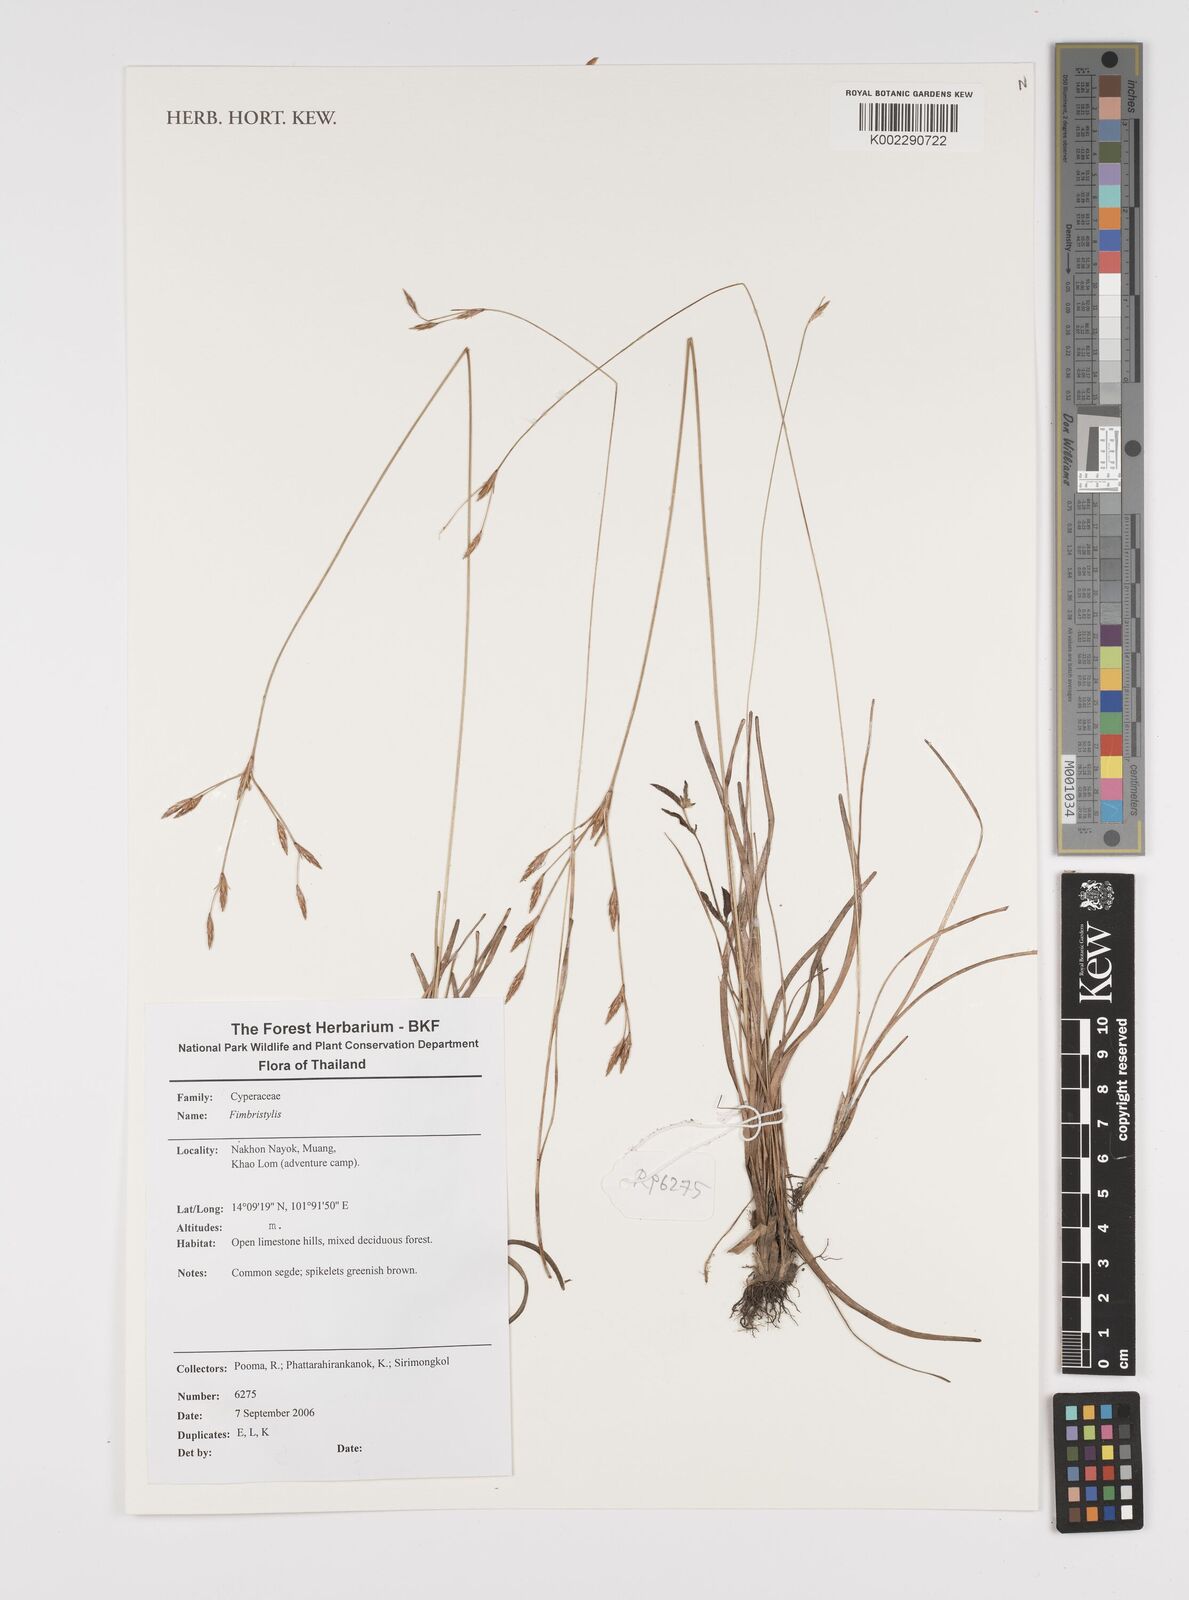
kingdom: Plantae
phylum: Tracheophyta
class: Liliopsida
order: Poales
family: Cyperaceae
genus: Fimbristylis
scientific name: Fimbristylis
